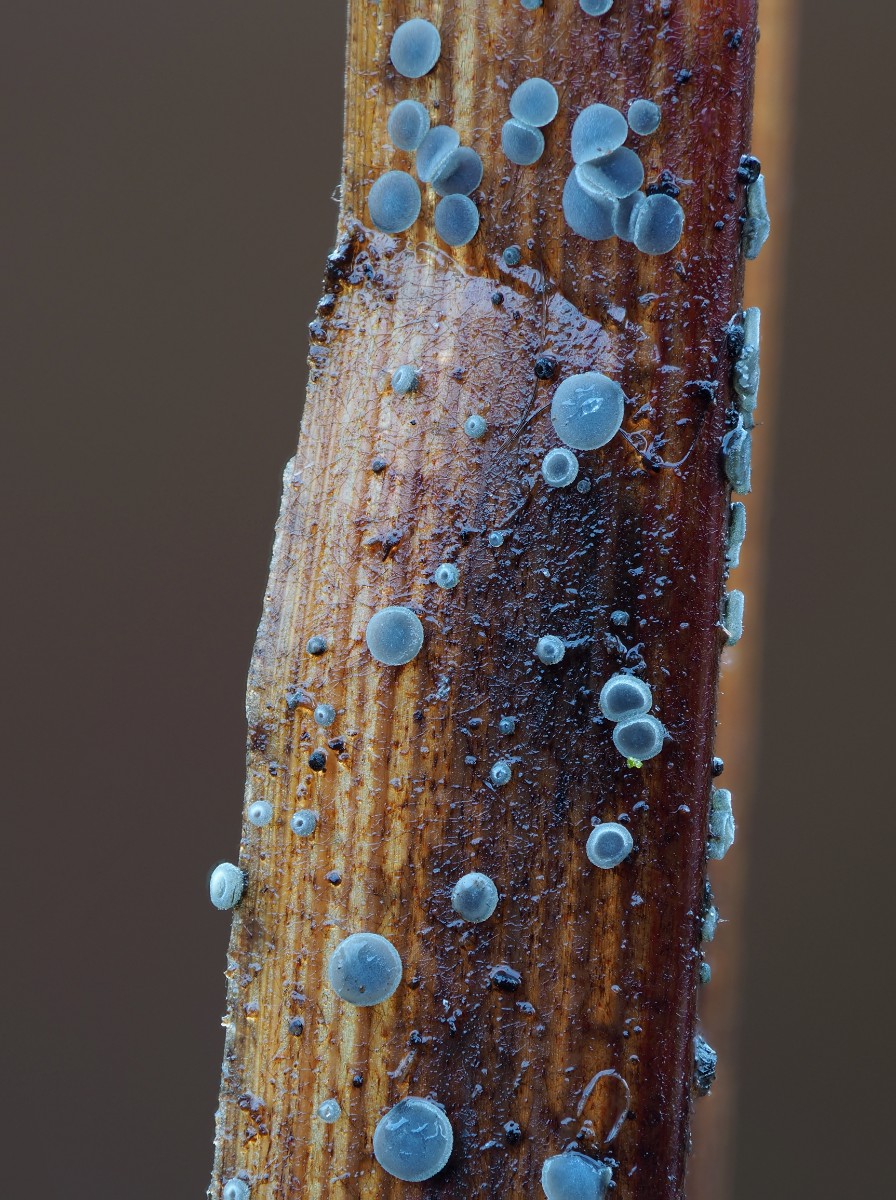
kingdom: Fungi
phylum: Ascomycota
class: Leotiomycetes
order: Helotiales
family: Mollisiaceae
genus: Mollisia
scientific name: Mollisia asteroma
